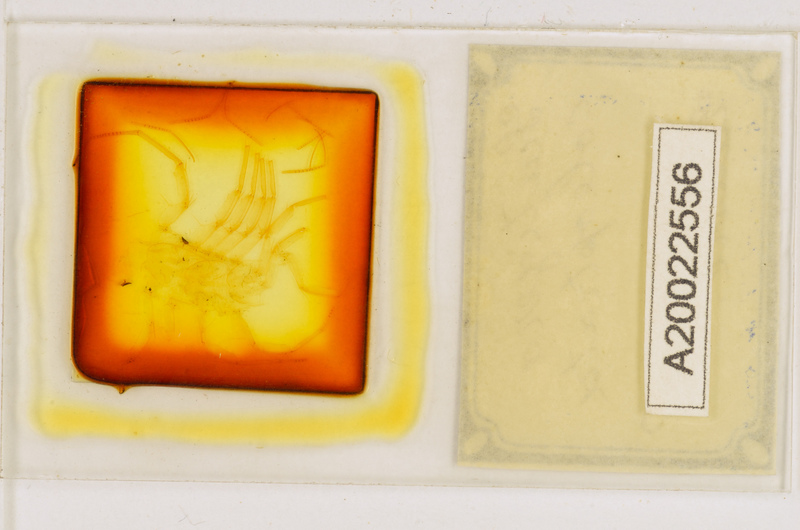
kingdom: Animalia
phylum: Arthropoda
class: Chilopoda
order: Scutigeromorpha
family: Scutigeridae
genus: Scutigera
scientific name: Scutigera coleoptrata
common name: House centipede
